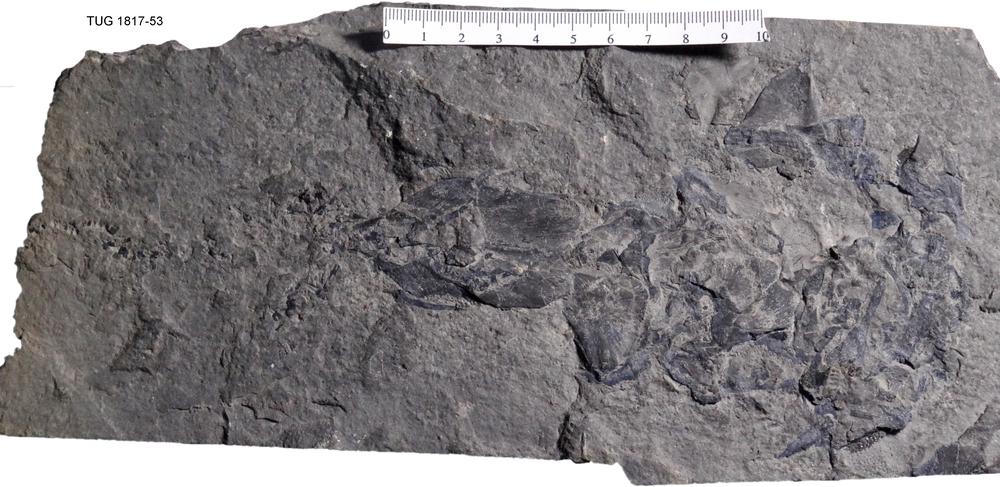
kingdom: Animalia
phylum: Chordata
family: Coccosteidae
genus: Coccosteus
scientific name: Coccosteus cuspidatus
